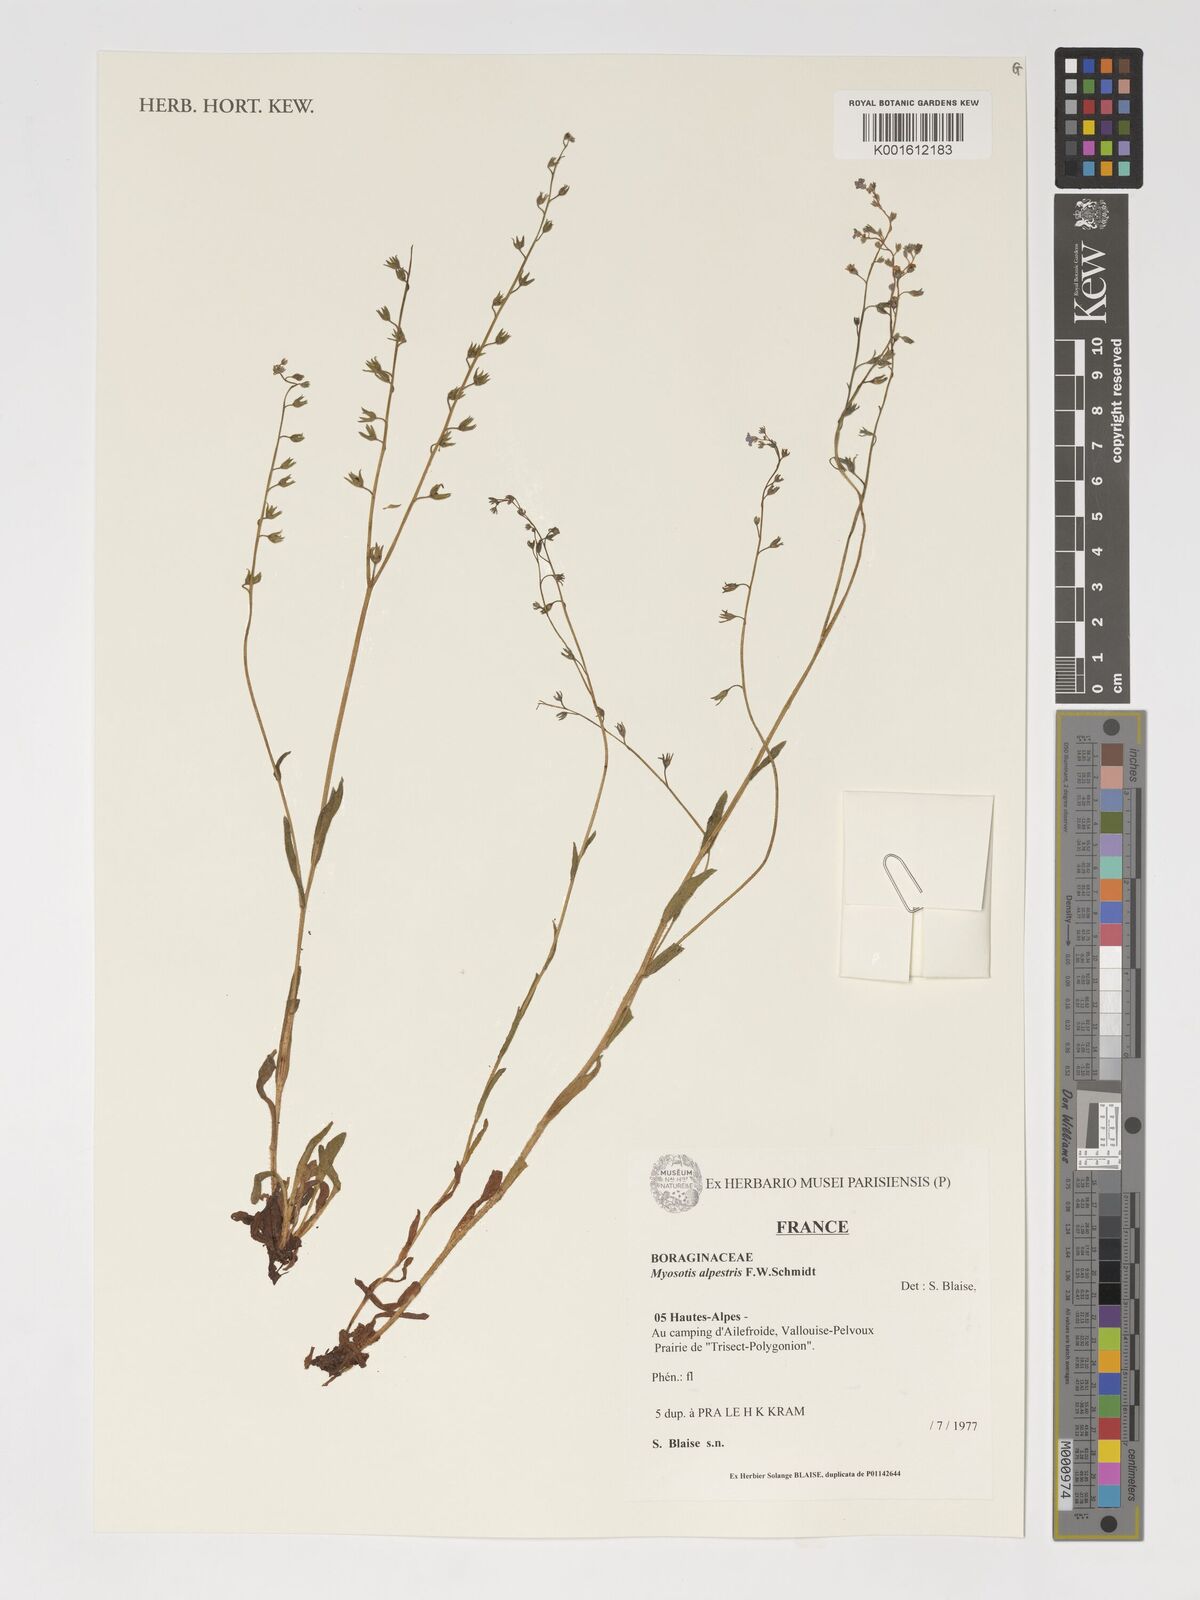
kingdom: Plantae
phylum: Tracheophyta
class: Magnoliopsida
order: Boraginales
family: Boraginaceae
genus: Myosotis
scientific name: Myosotis alpestris
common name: Alpine forget-me-not
